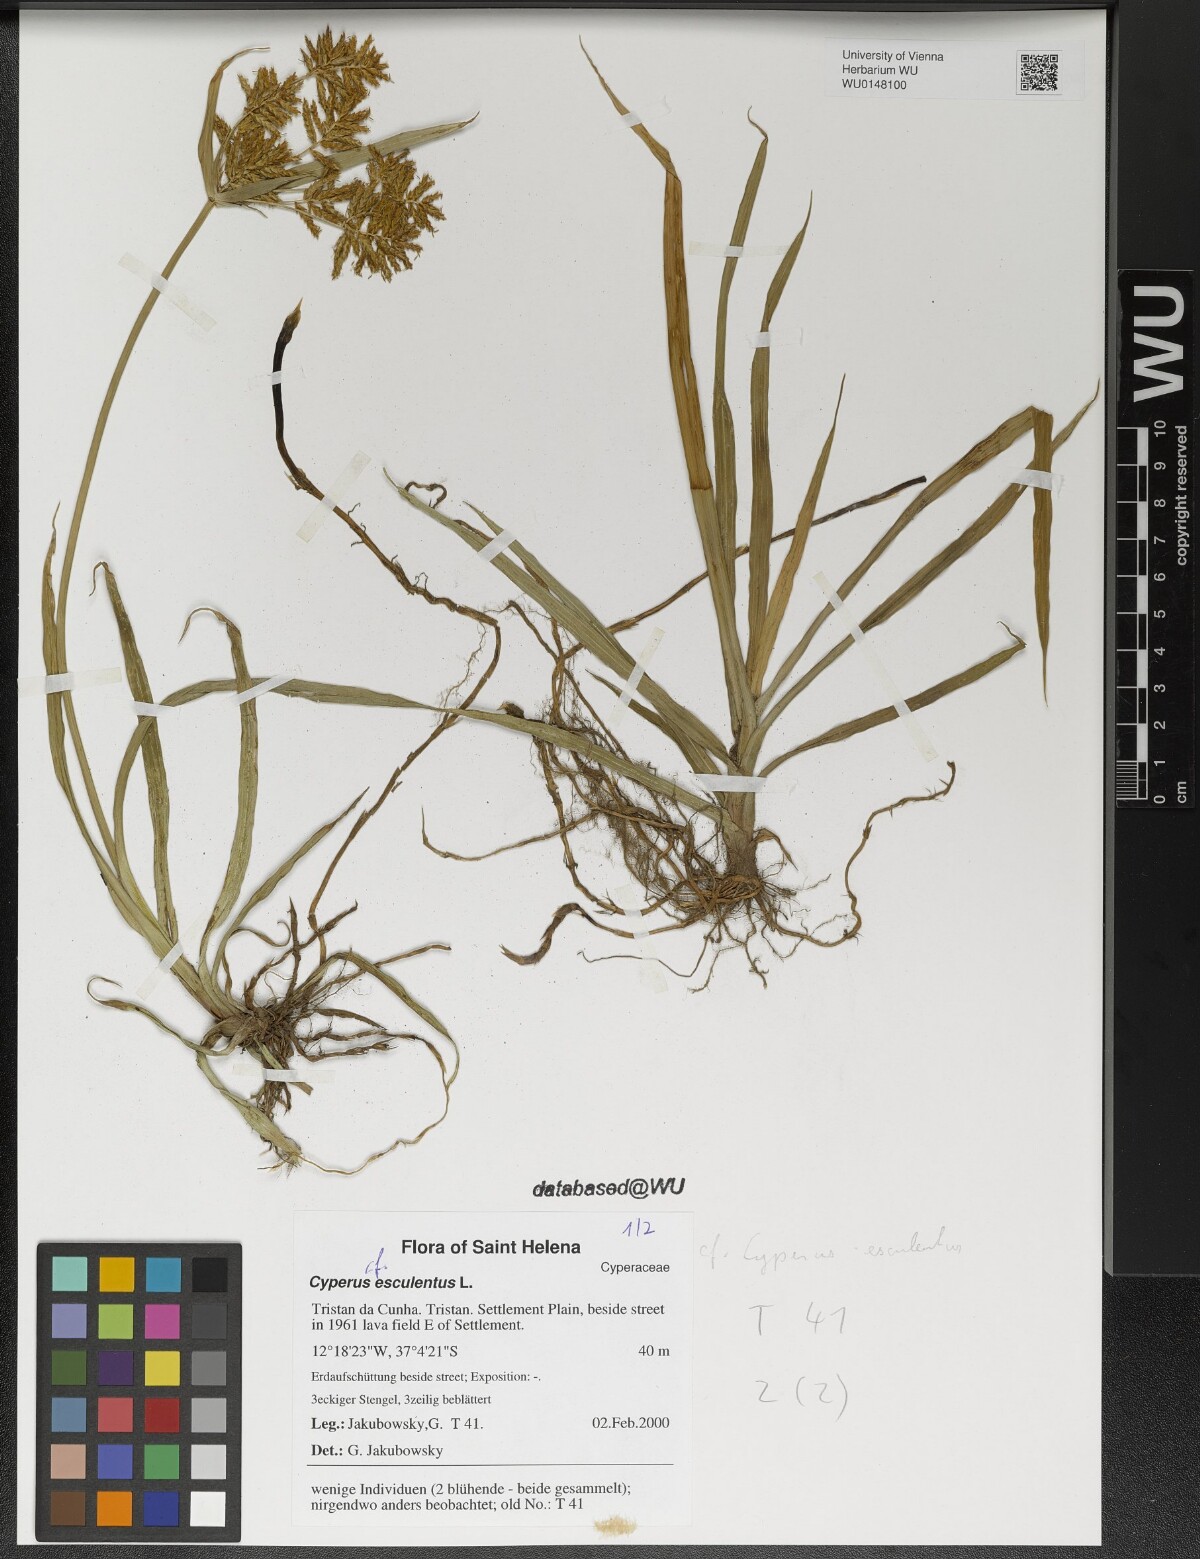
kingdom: Plantae
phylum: Tracheophyta
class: Liliopsida
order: Poales
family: Cyperaceae
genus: Cyperus
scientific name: Cyperus esculentus
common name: Yellow nutsedge
